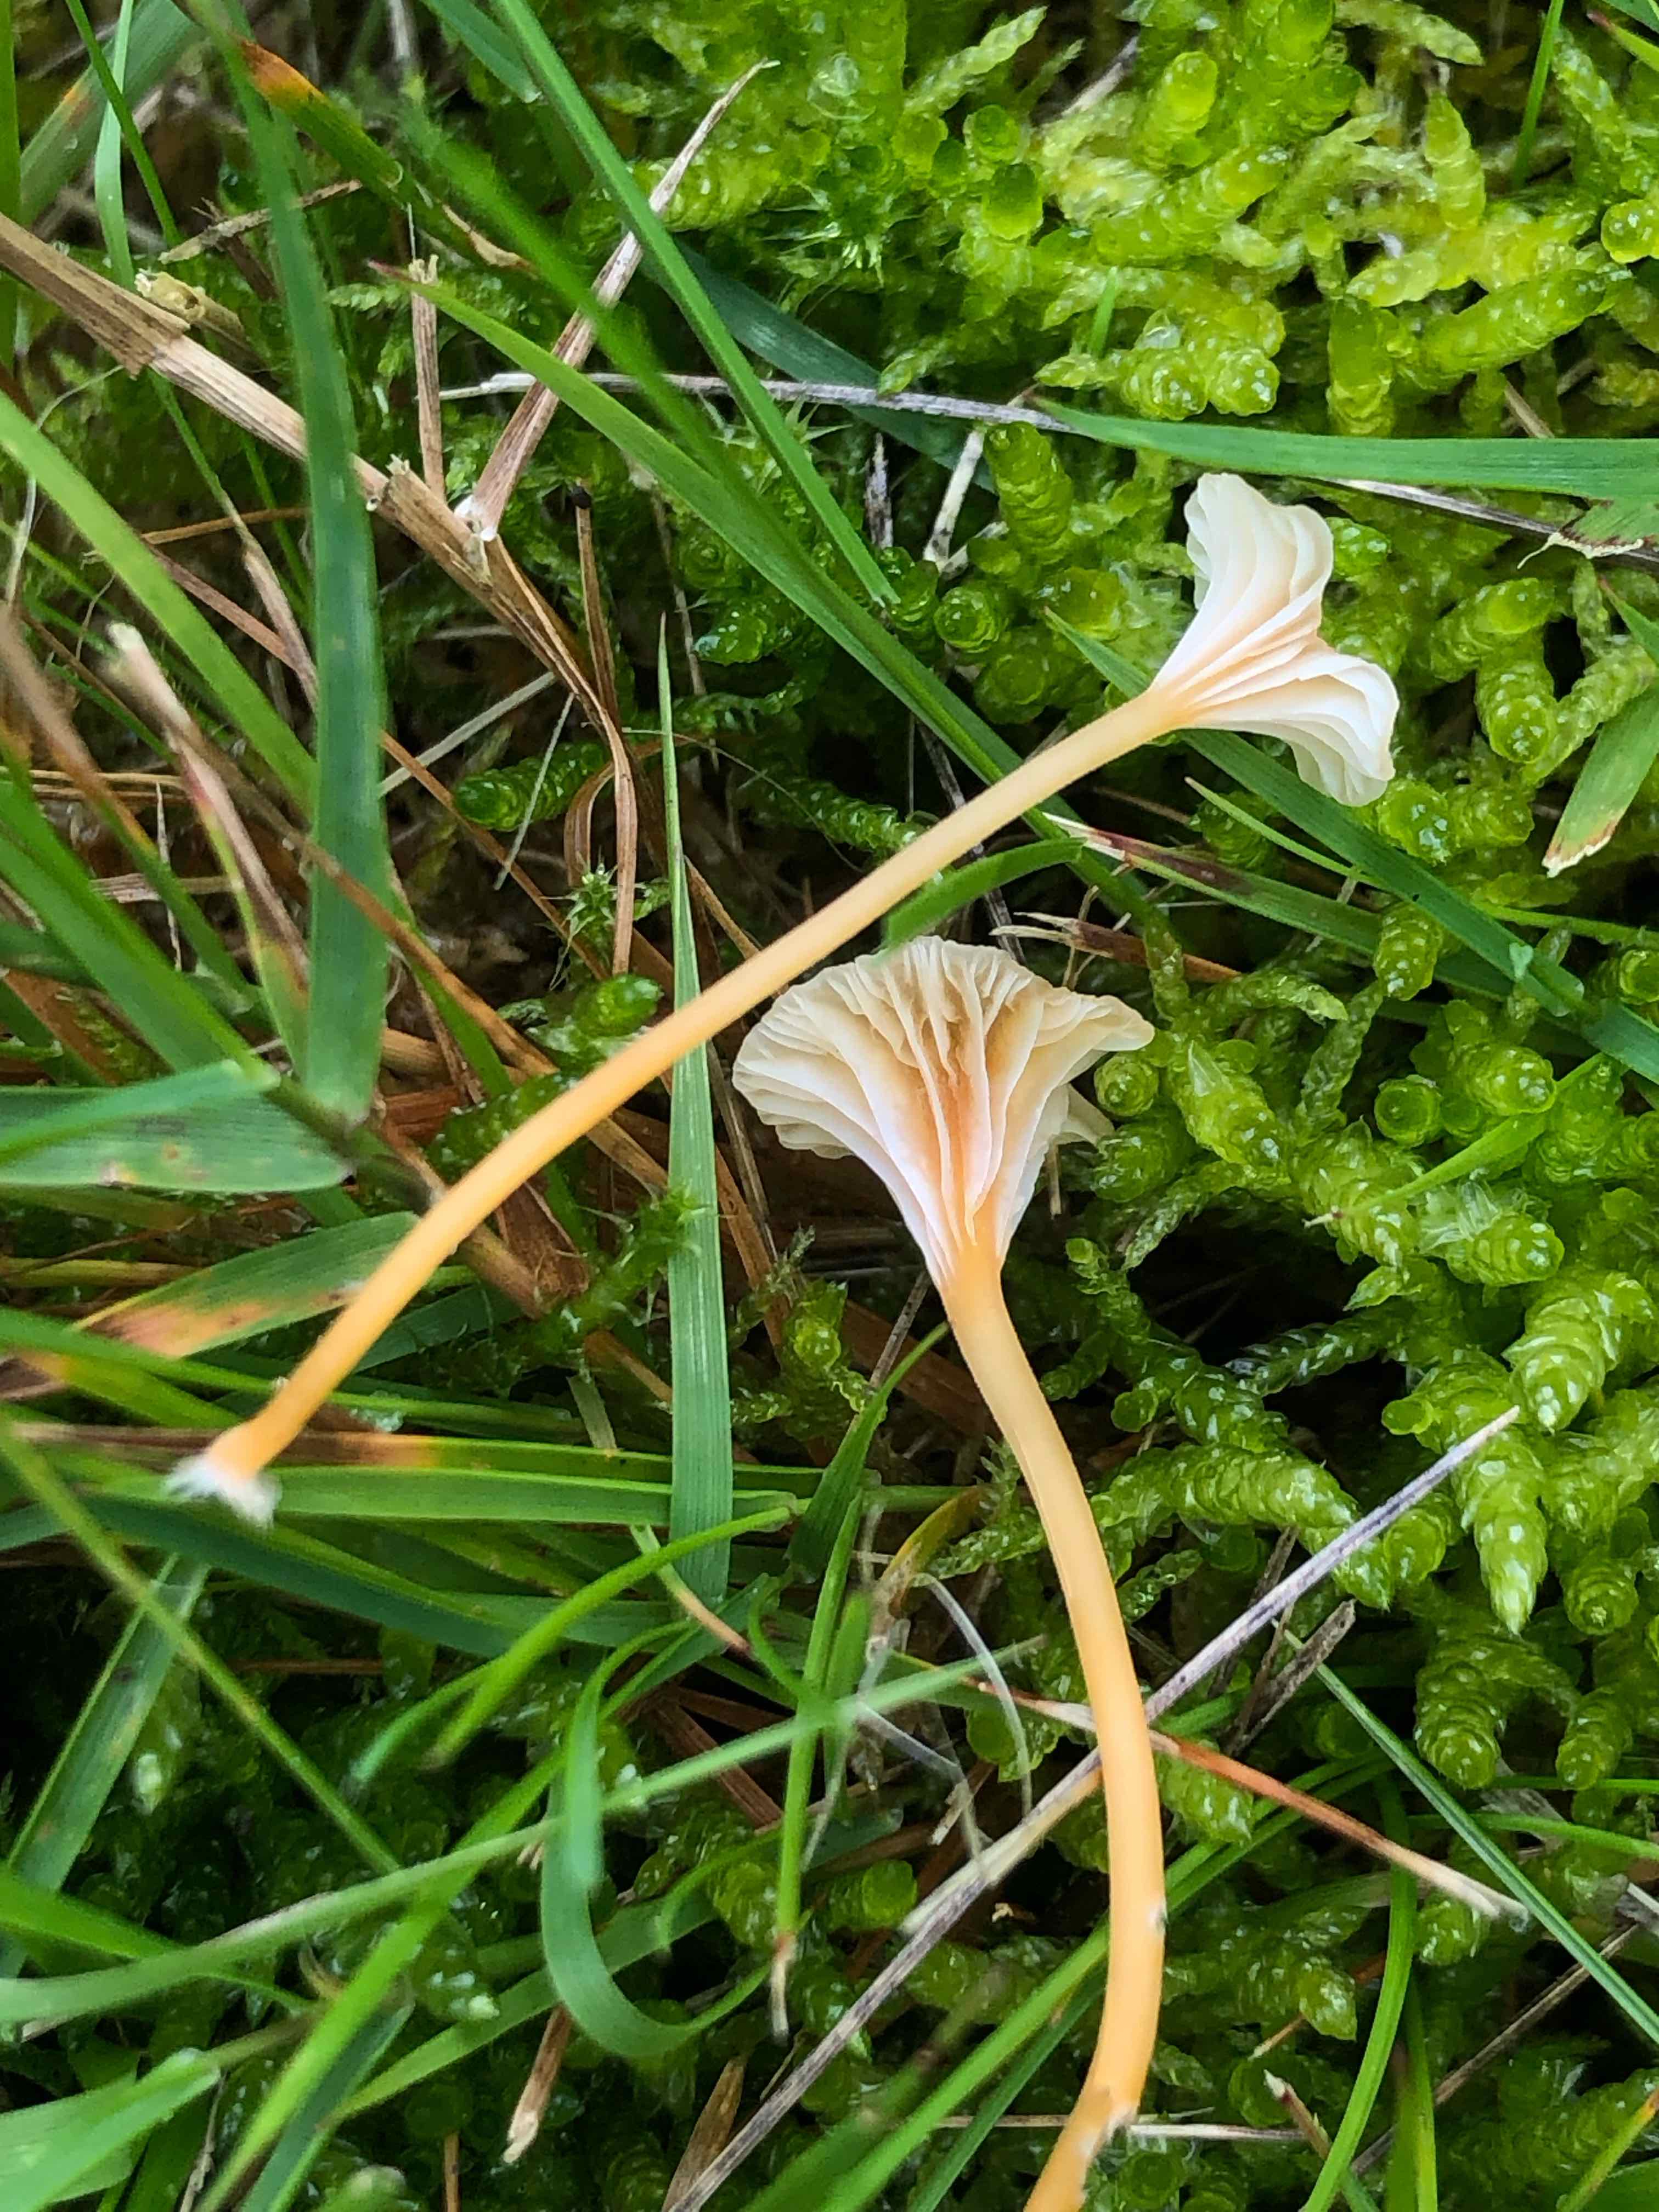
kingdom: Fungi
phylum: Basidiomycota
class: Agaricomycetes
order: Hymenochaetales
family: Rickenellaceae
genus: Rickenella
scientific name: Rickenella fibula
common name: orange mosnavlehat
